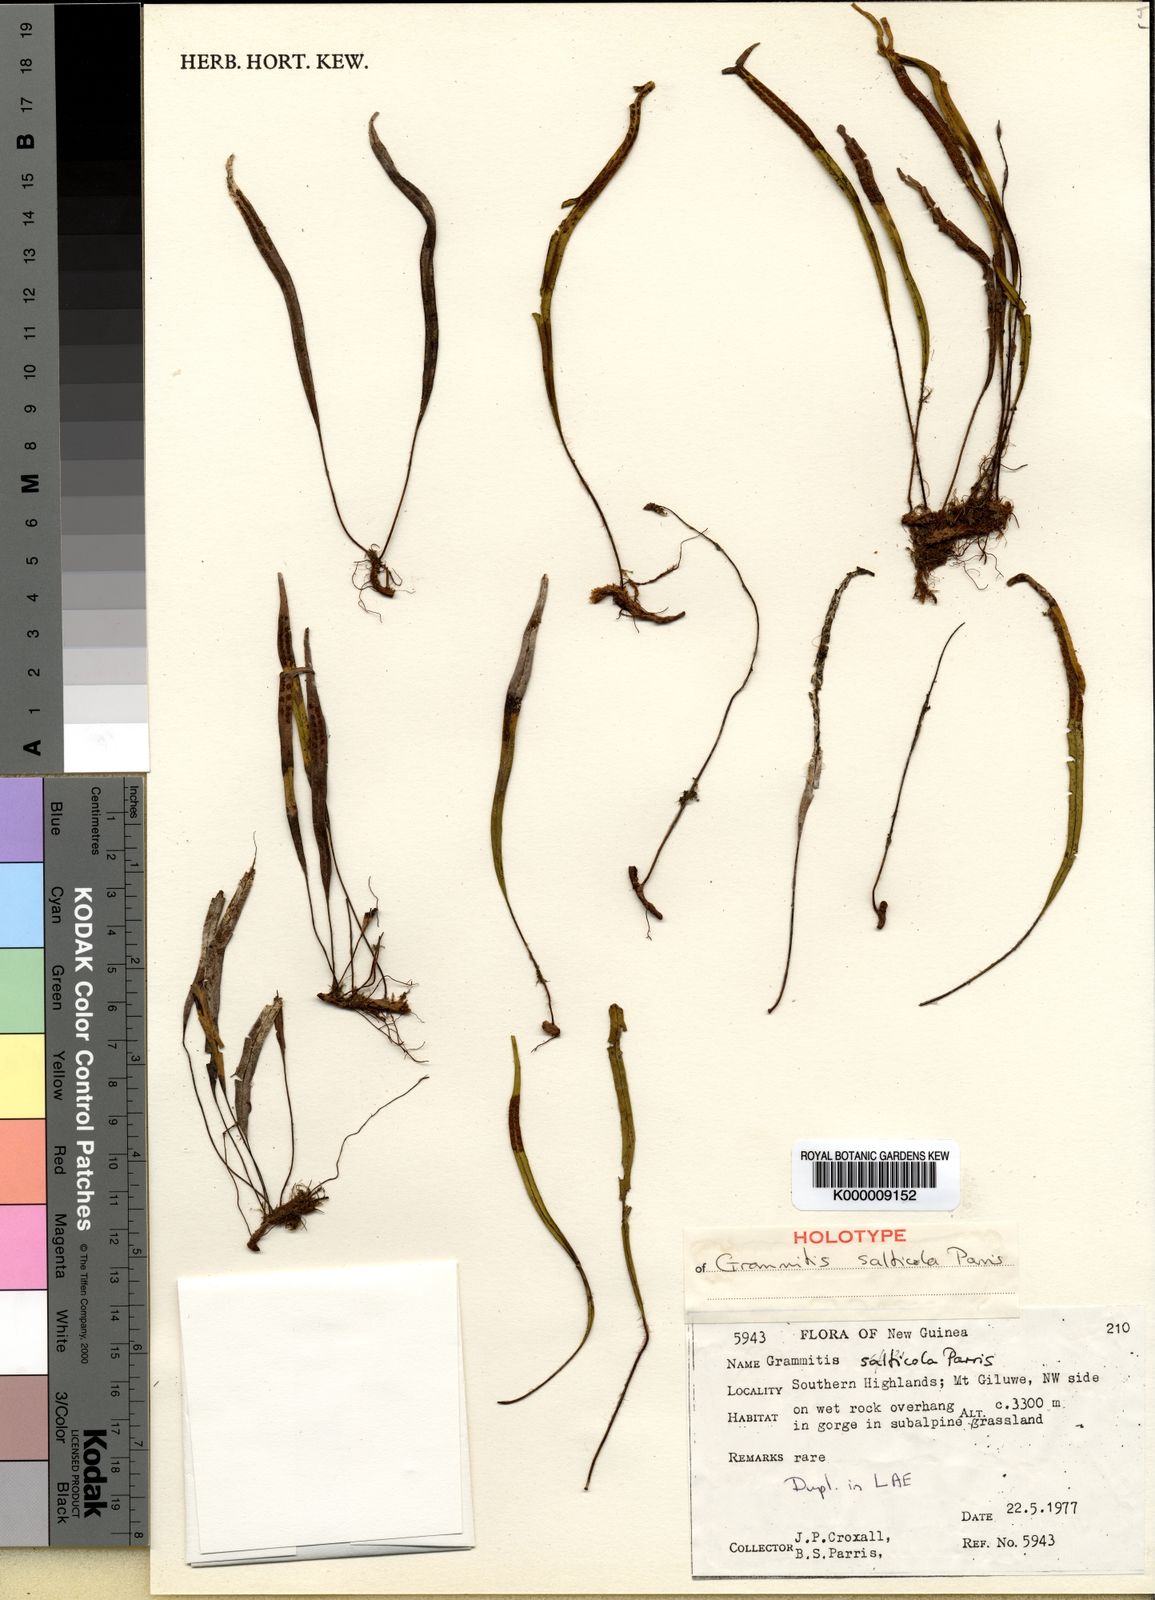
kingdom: Plantae
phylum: Tracheophyta
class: Polypodiopsida
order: Polypodiales
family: Polypodiaceae
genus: Oreogrammitis
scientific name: Oreogrammitis salticola
